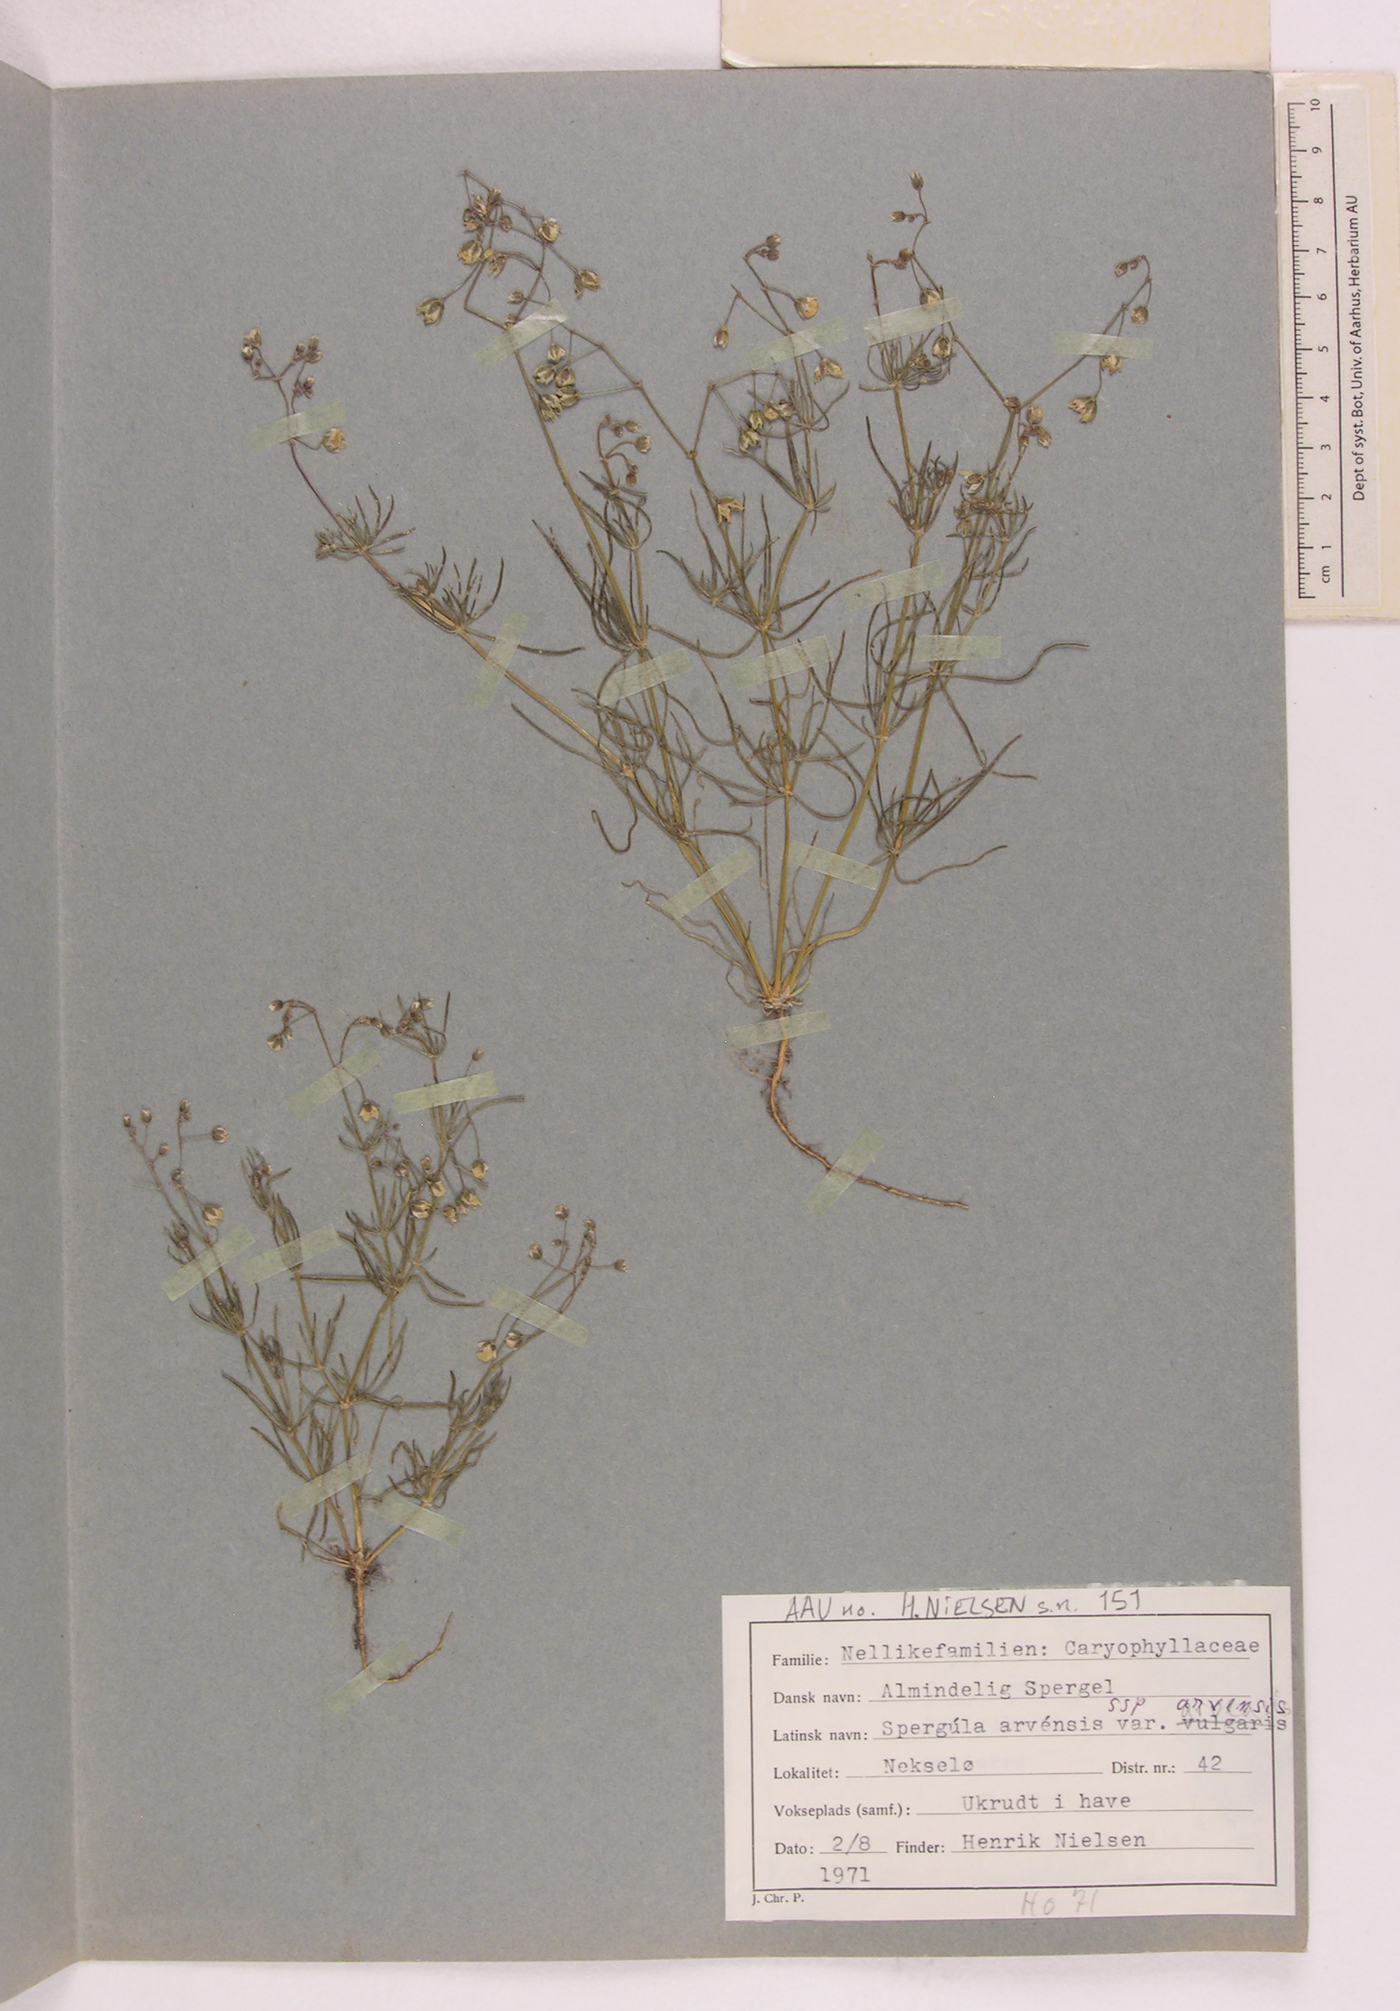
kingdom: Plantae
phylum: Tracheophyta
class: Magnoliopsida
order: Caryophyllales
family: Caryophyllaceae
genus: Spergula
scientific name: Spergula arvensis
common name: Corn spurrey
